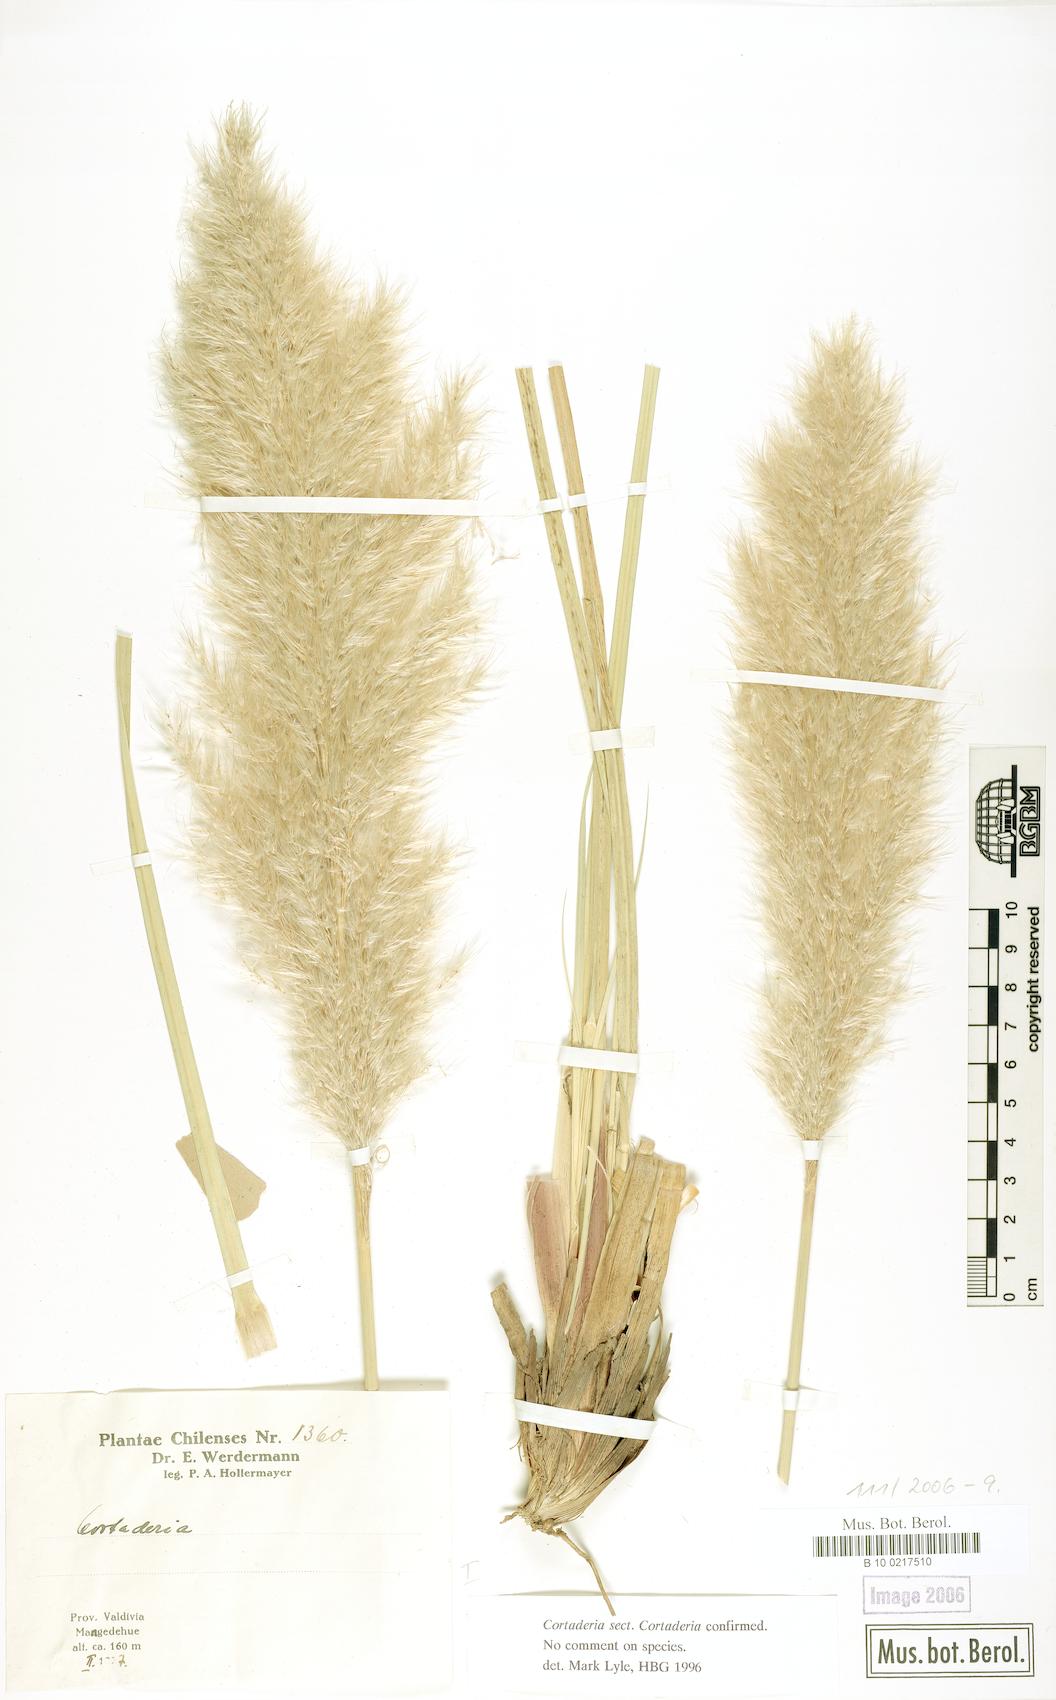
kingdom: Plantae
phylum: Tracheophyta
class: Liliopsida
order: Poales
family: Poaceae
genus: Cortaderia
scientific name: Cortaderia selloana
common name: Uruguayan pampas grass
